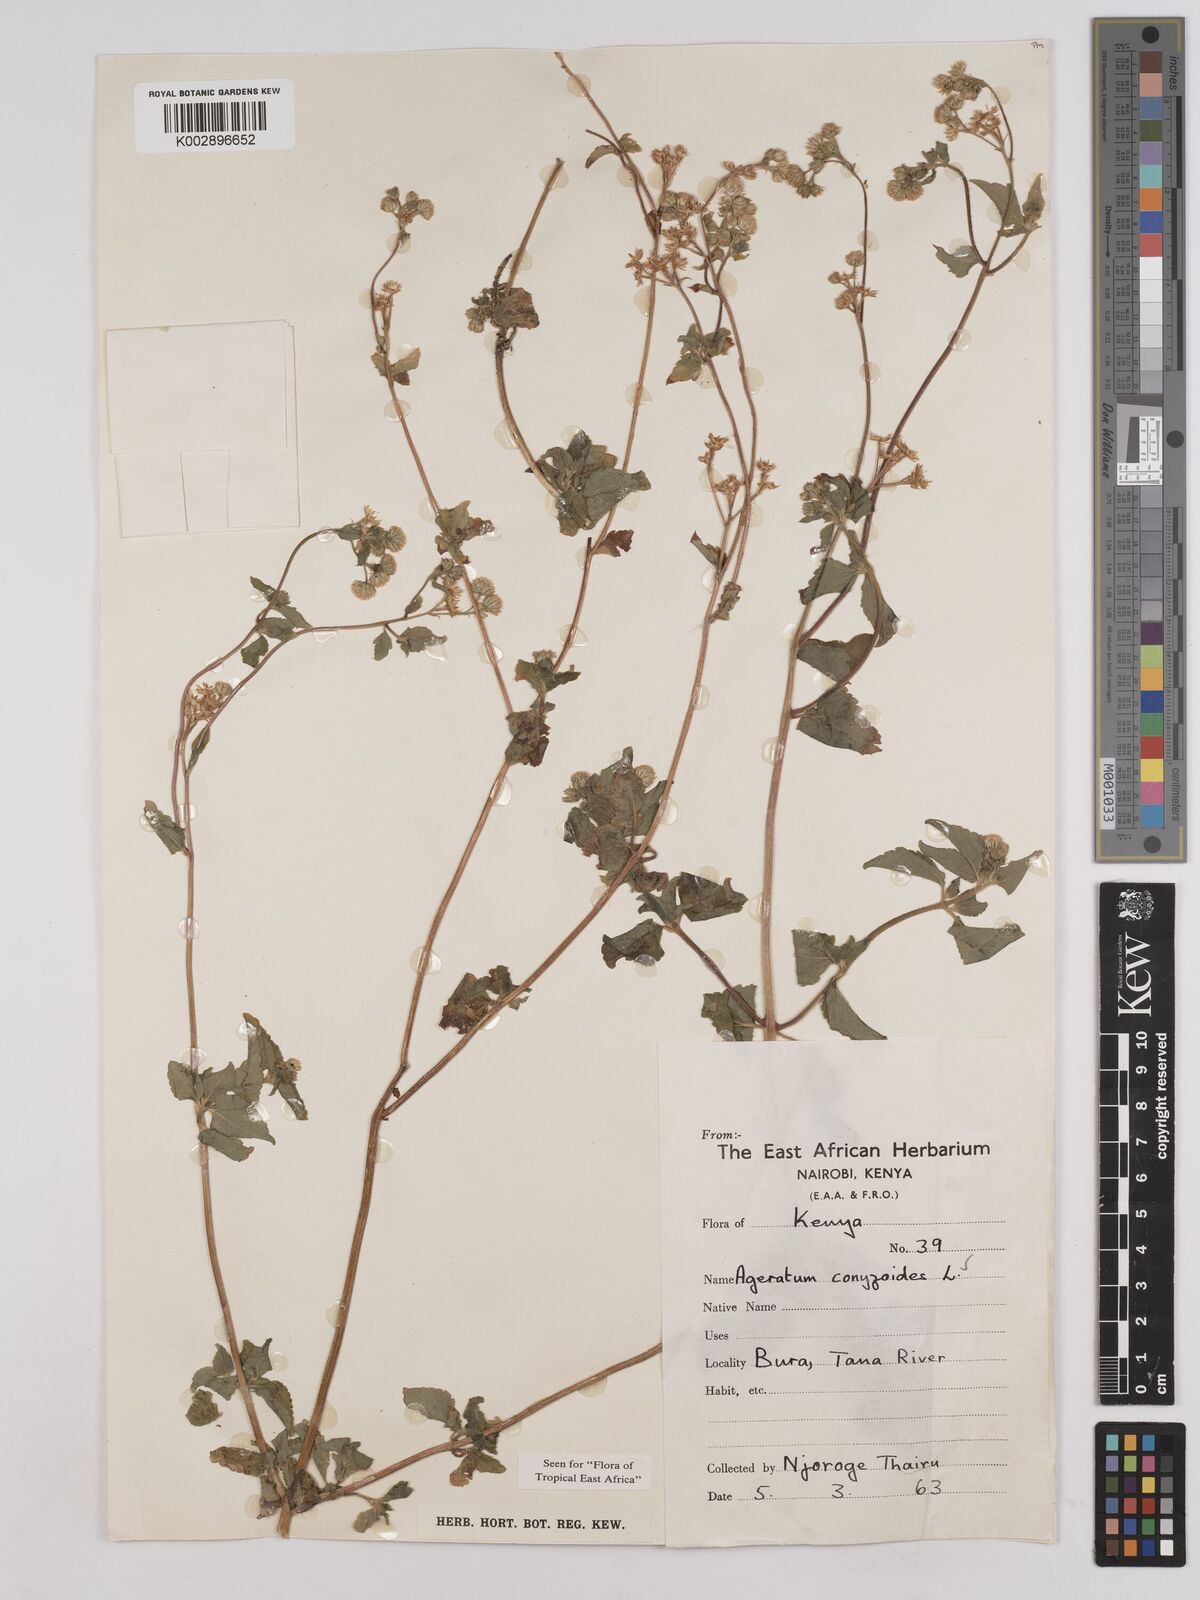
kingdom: Plantae
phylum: Tracheophyta
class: Magnoliopsida
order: Asterales
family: Asteraceae
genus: Ageratum
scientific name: Ageratum conyzoides
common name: Tropical whiteweed
